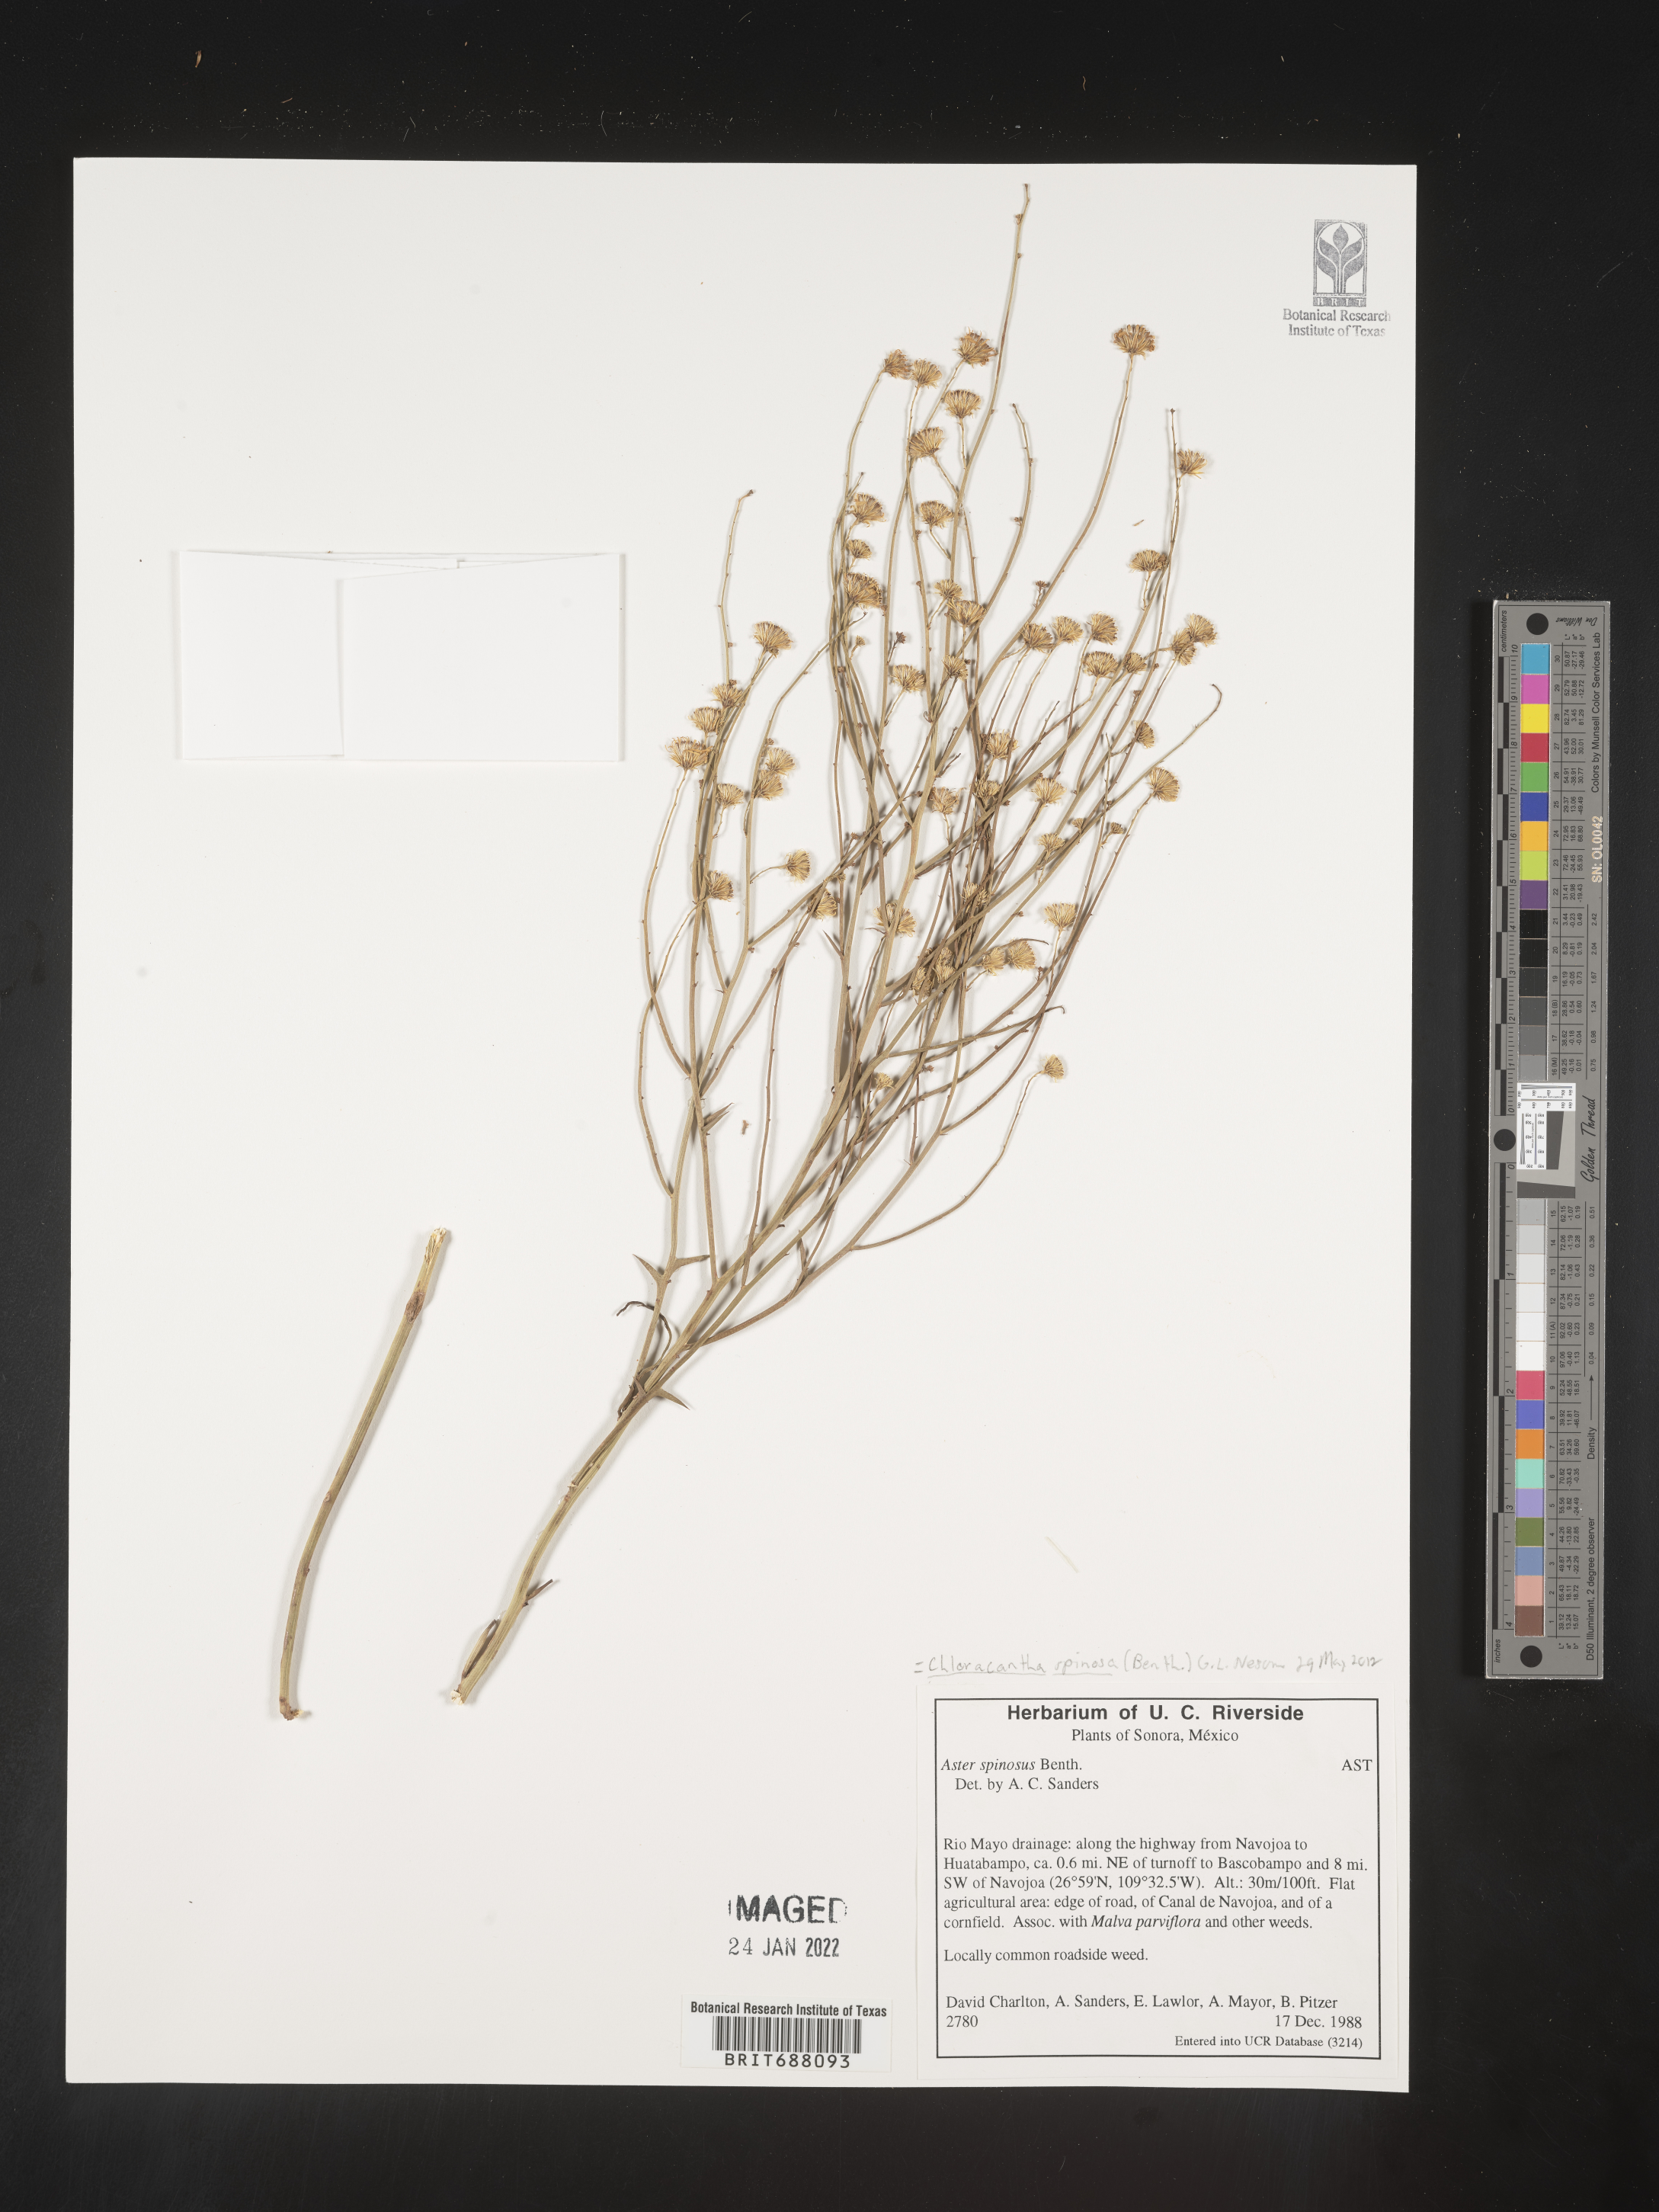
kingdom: Plantae
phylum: Tracheophyta
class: Magnoliopsida
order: Asterales
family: Asteraceae
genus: Chloracantha
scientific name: Chloracantha
